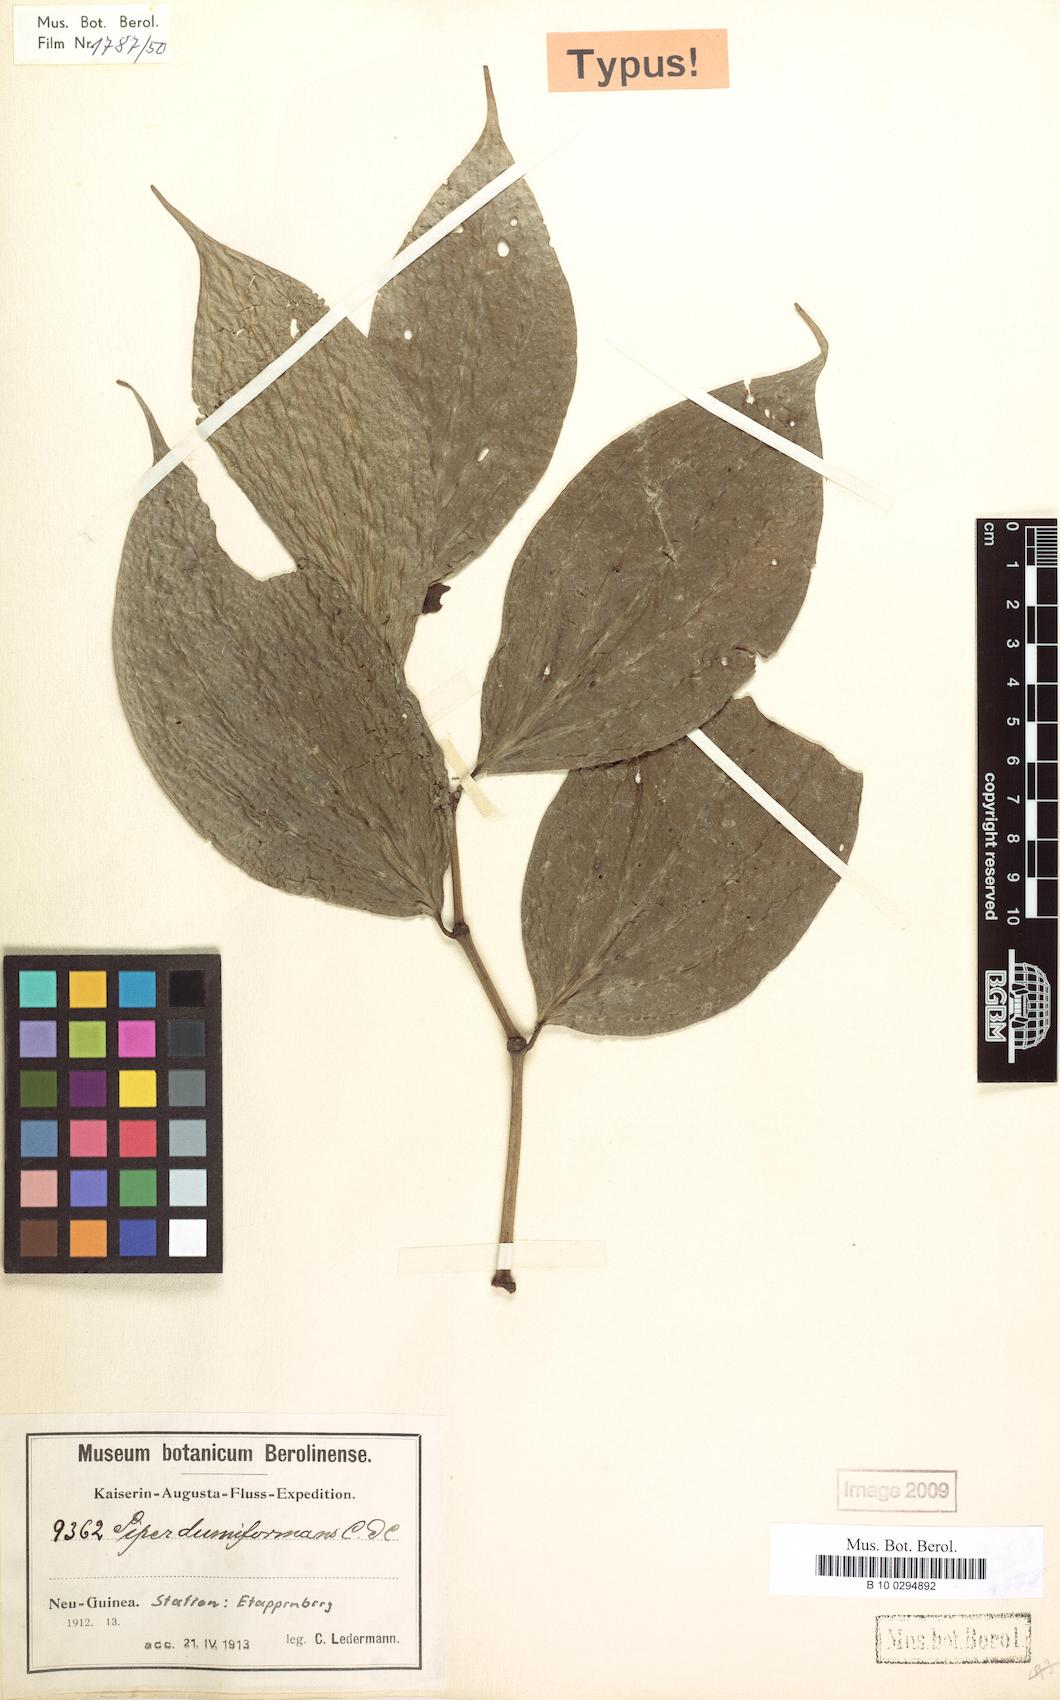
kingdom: Plantae
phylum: Tracheophyta
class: Magnoliopsida
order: Piperales
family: Piperaceae
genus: Piper
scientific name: Piper dumiformans
